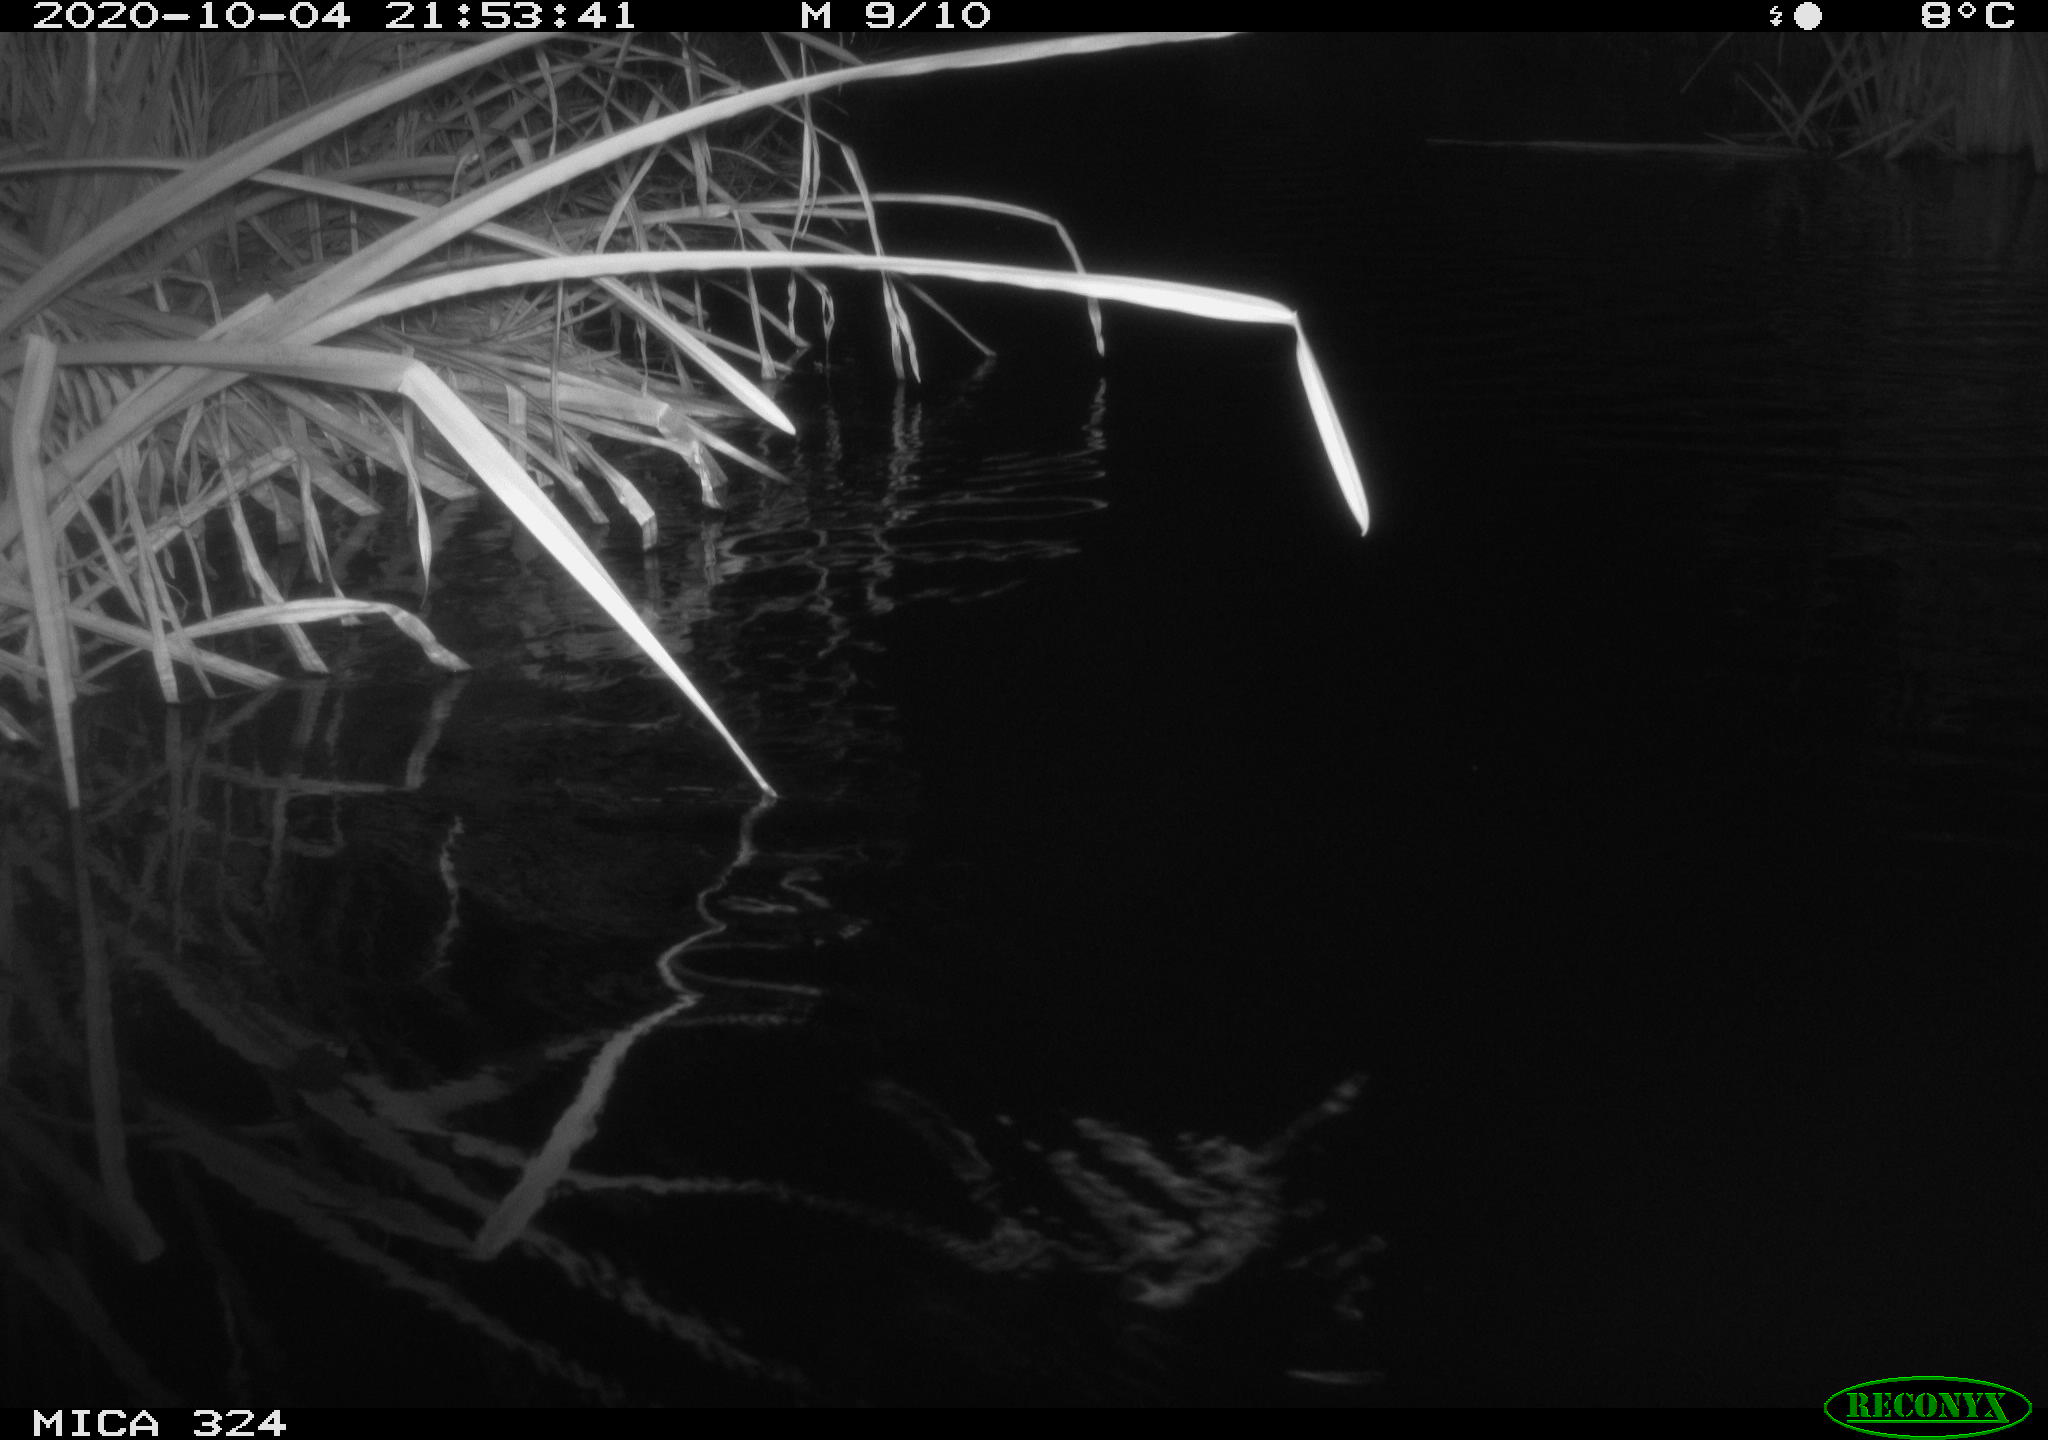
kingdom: Animalia
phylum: Chordata
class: Mammalia
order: Rodentia
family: Cricetidae
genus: Ondatra
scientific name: Ondatra zibethicus
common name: Muskrat
